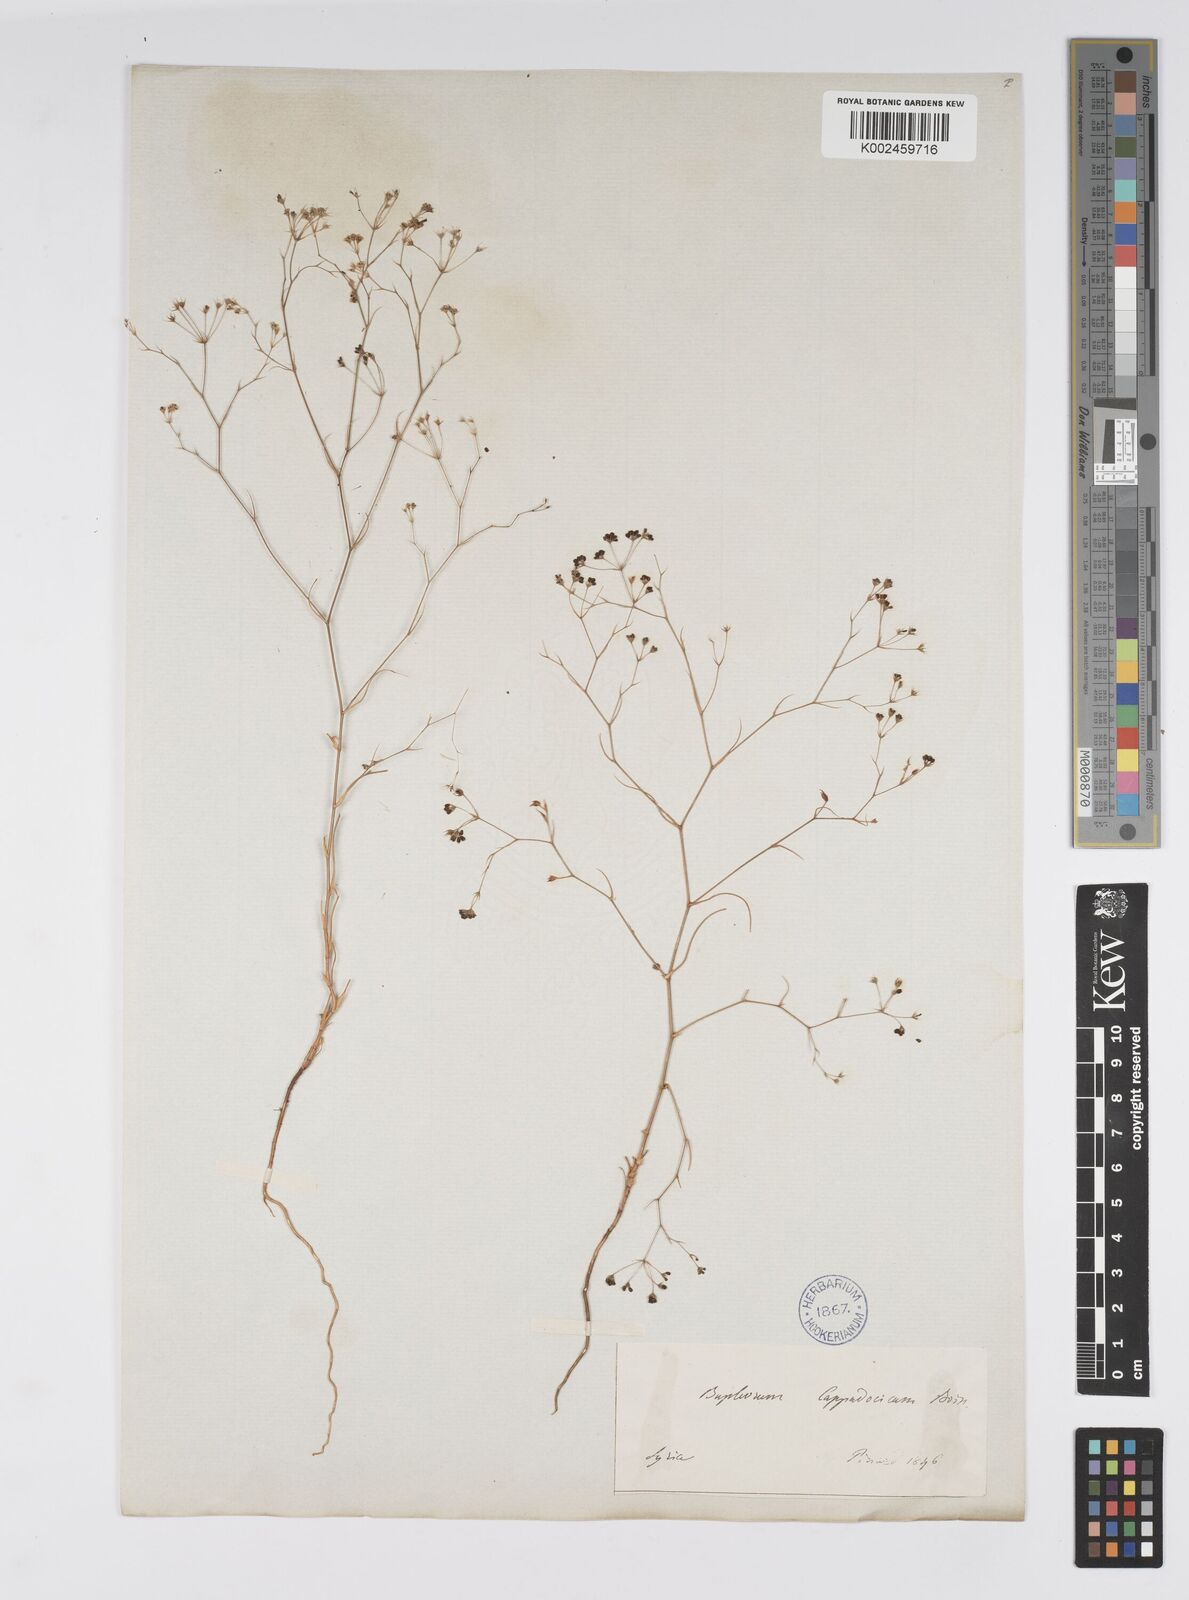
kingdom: Plantae
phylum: Tracheophyta
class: Magnoliopsida
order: Apiales
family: Apiaceae
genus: Bupleurum
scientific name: Bupleurum cappadocicum
